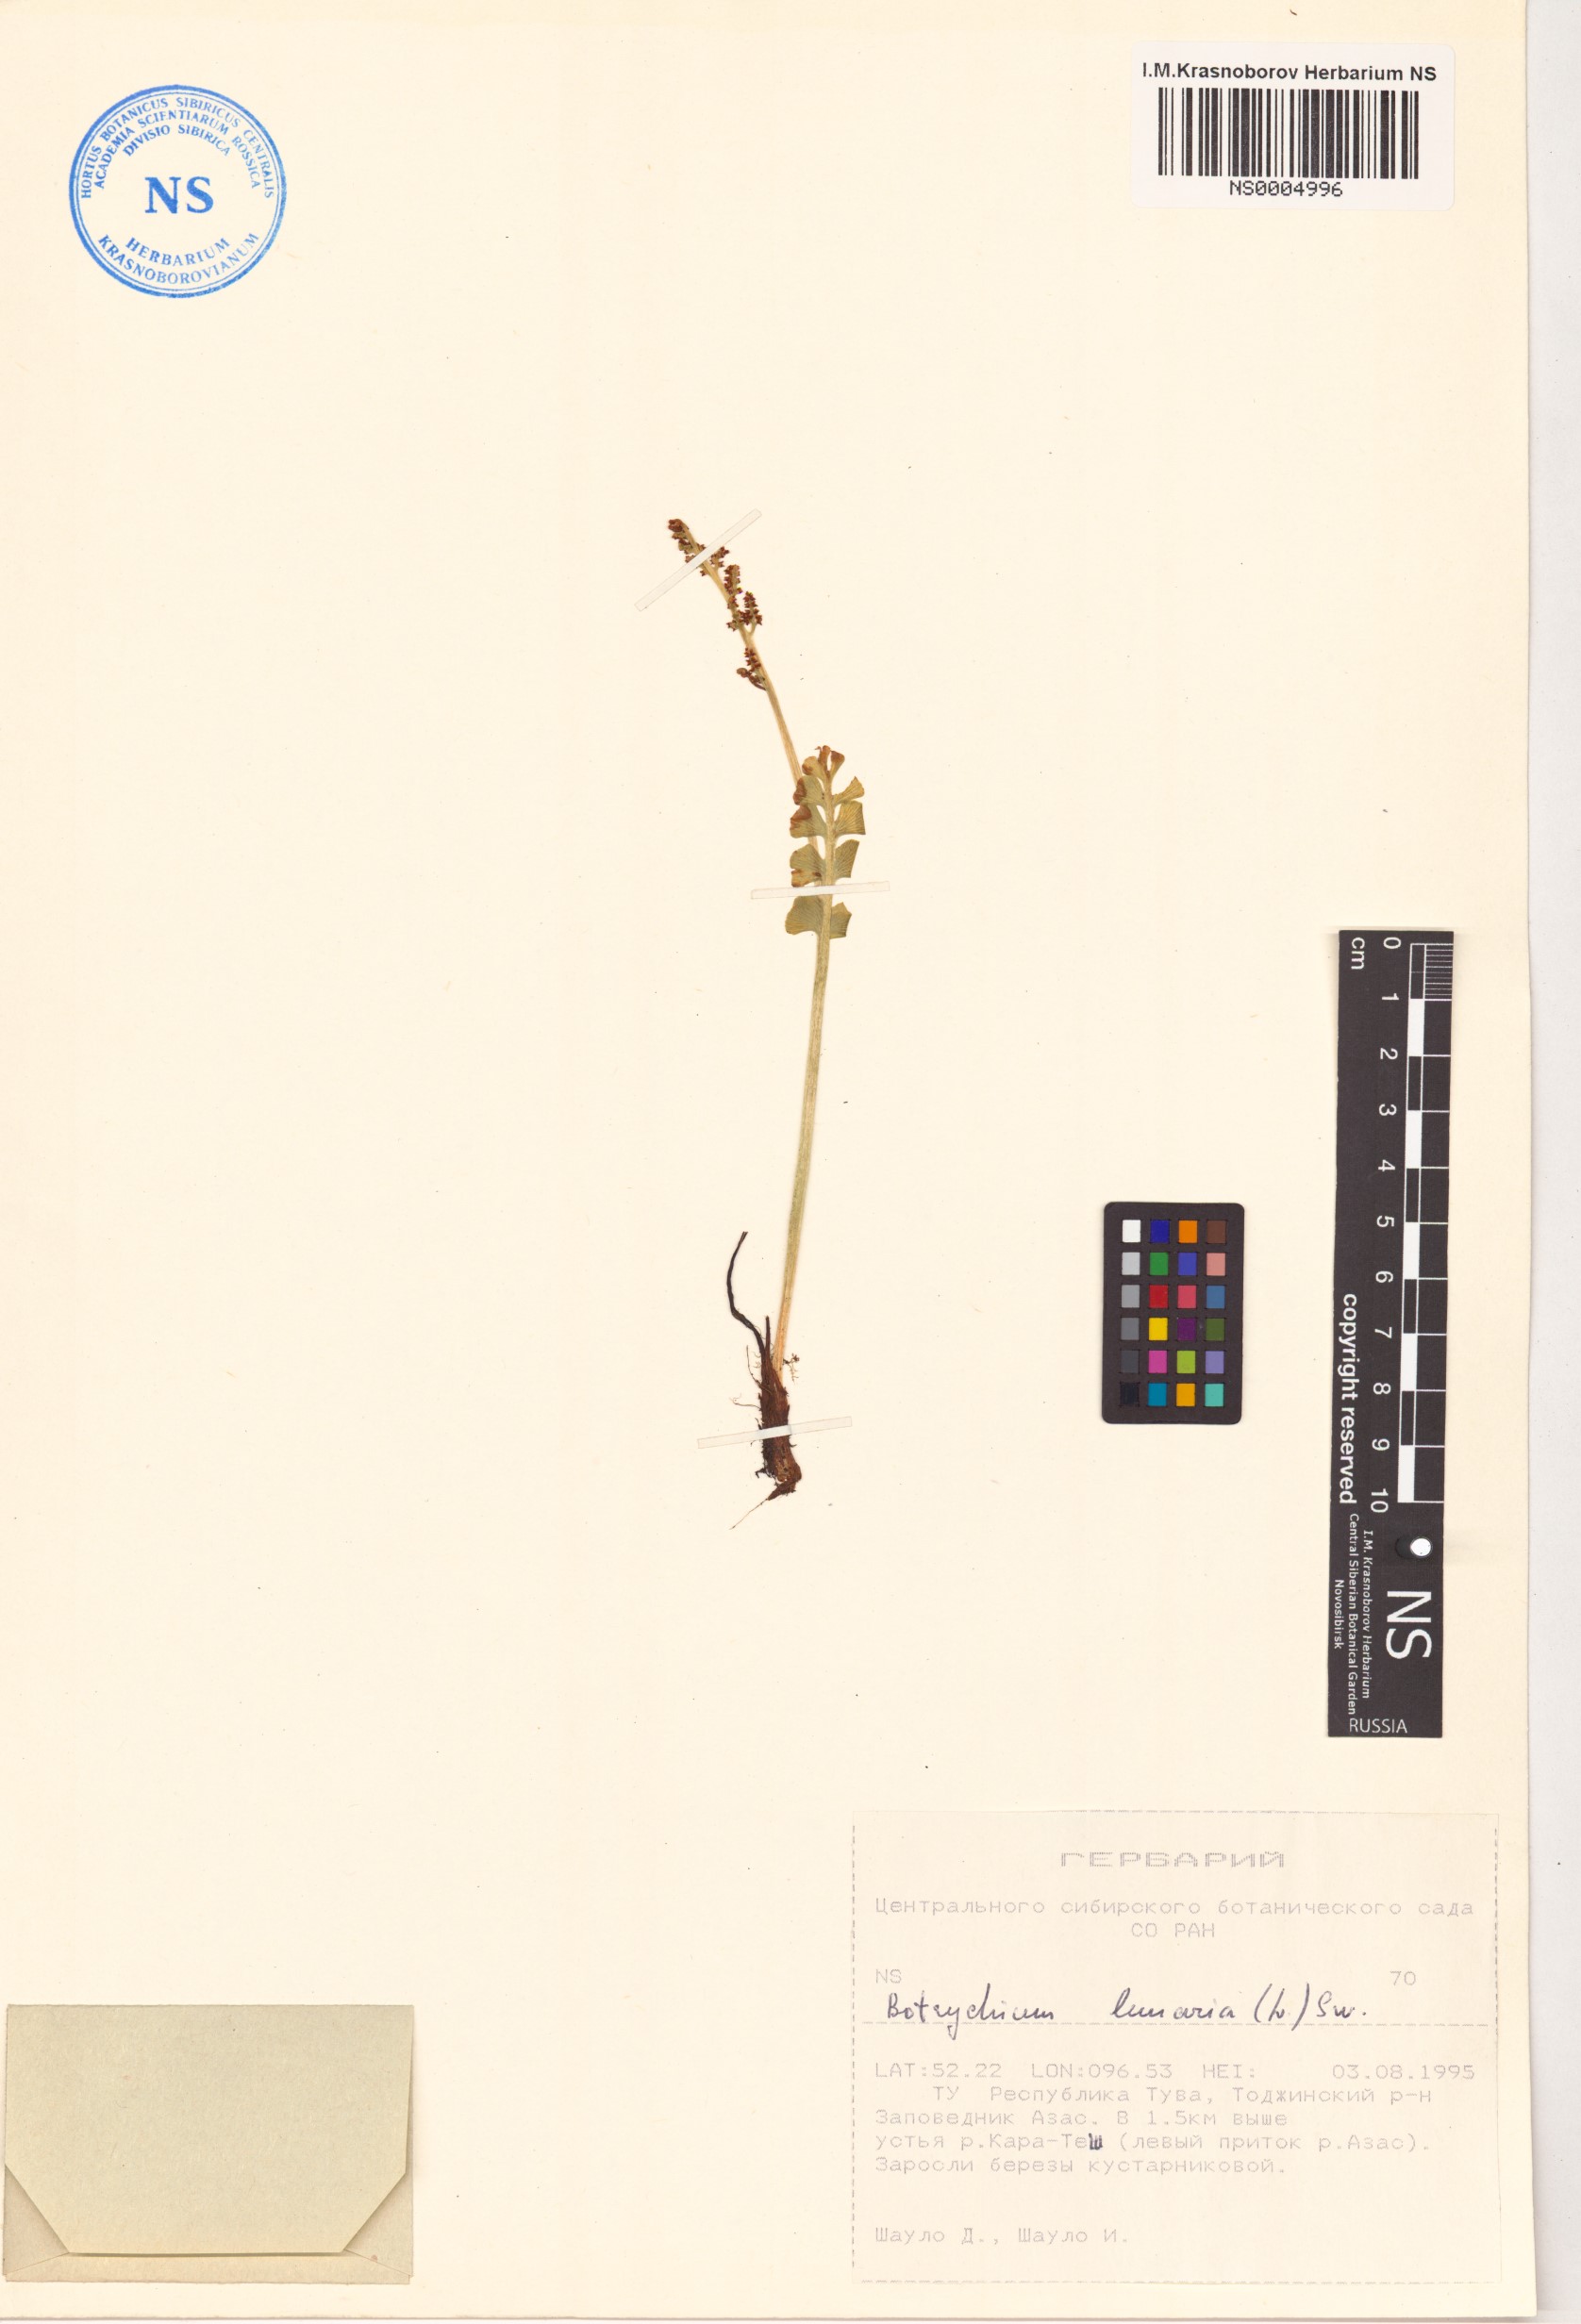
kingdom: Plantae
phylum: Tracheophyta
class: Polypodiopsida
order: Ophioglossales
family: Ophioglossaceae
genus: Botrychium
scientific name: Botrychium lunaria
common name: Moonwort
